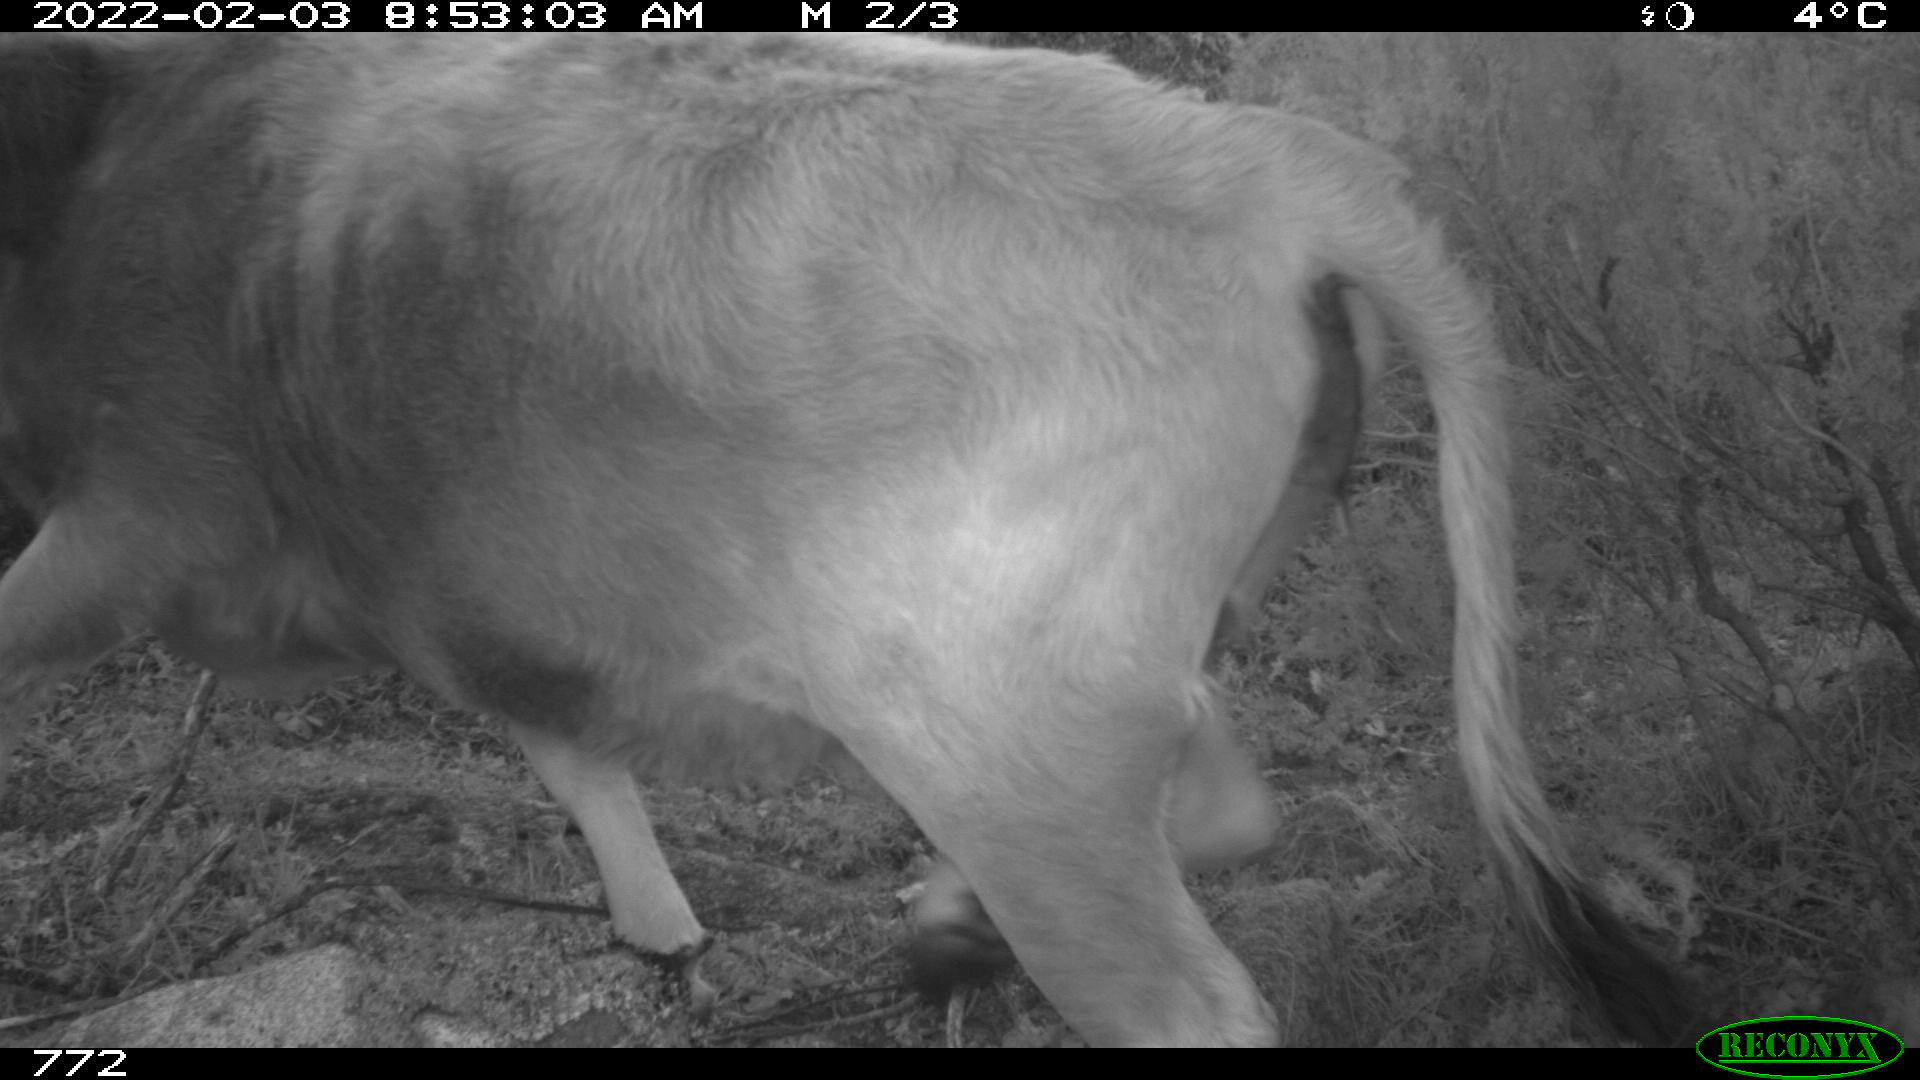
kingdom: Animalia
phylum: Chordata
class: Mammalia
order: Artiodactyla
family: Bovidae
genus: Bos
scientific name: Bos taurus
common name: Domesticated cattle
